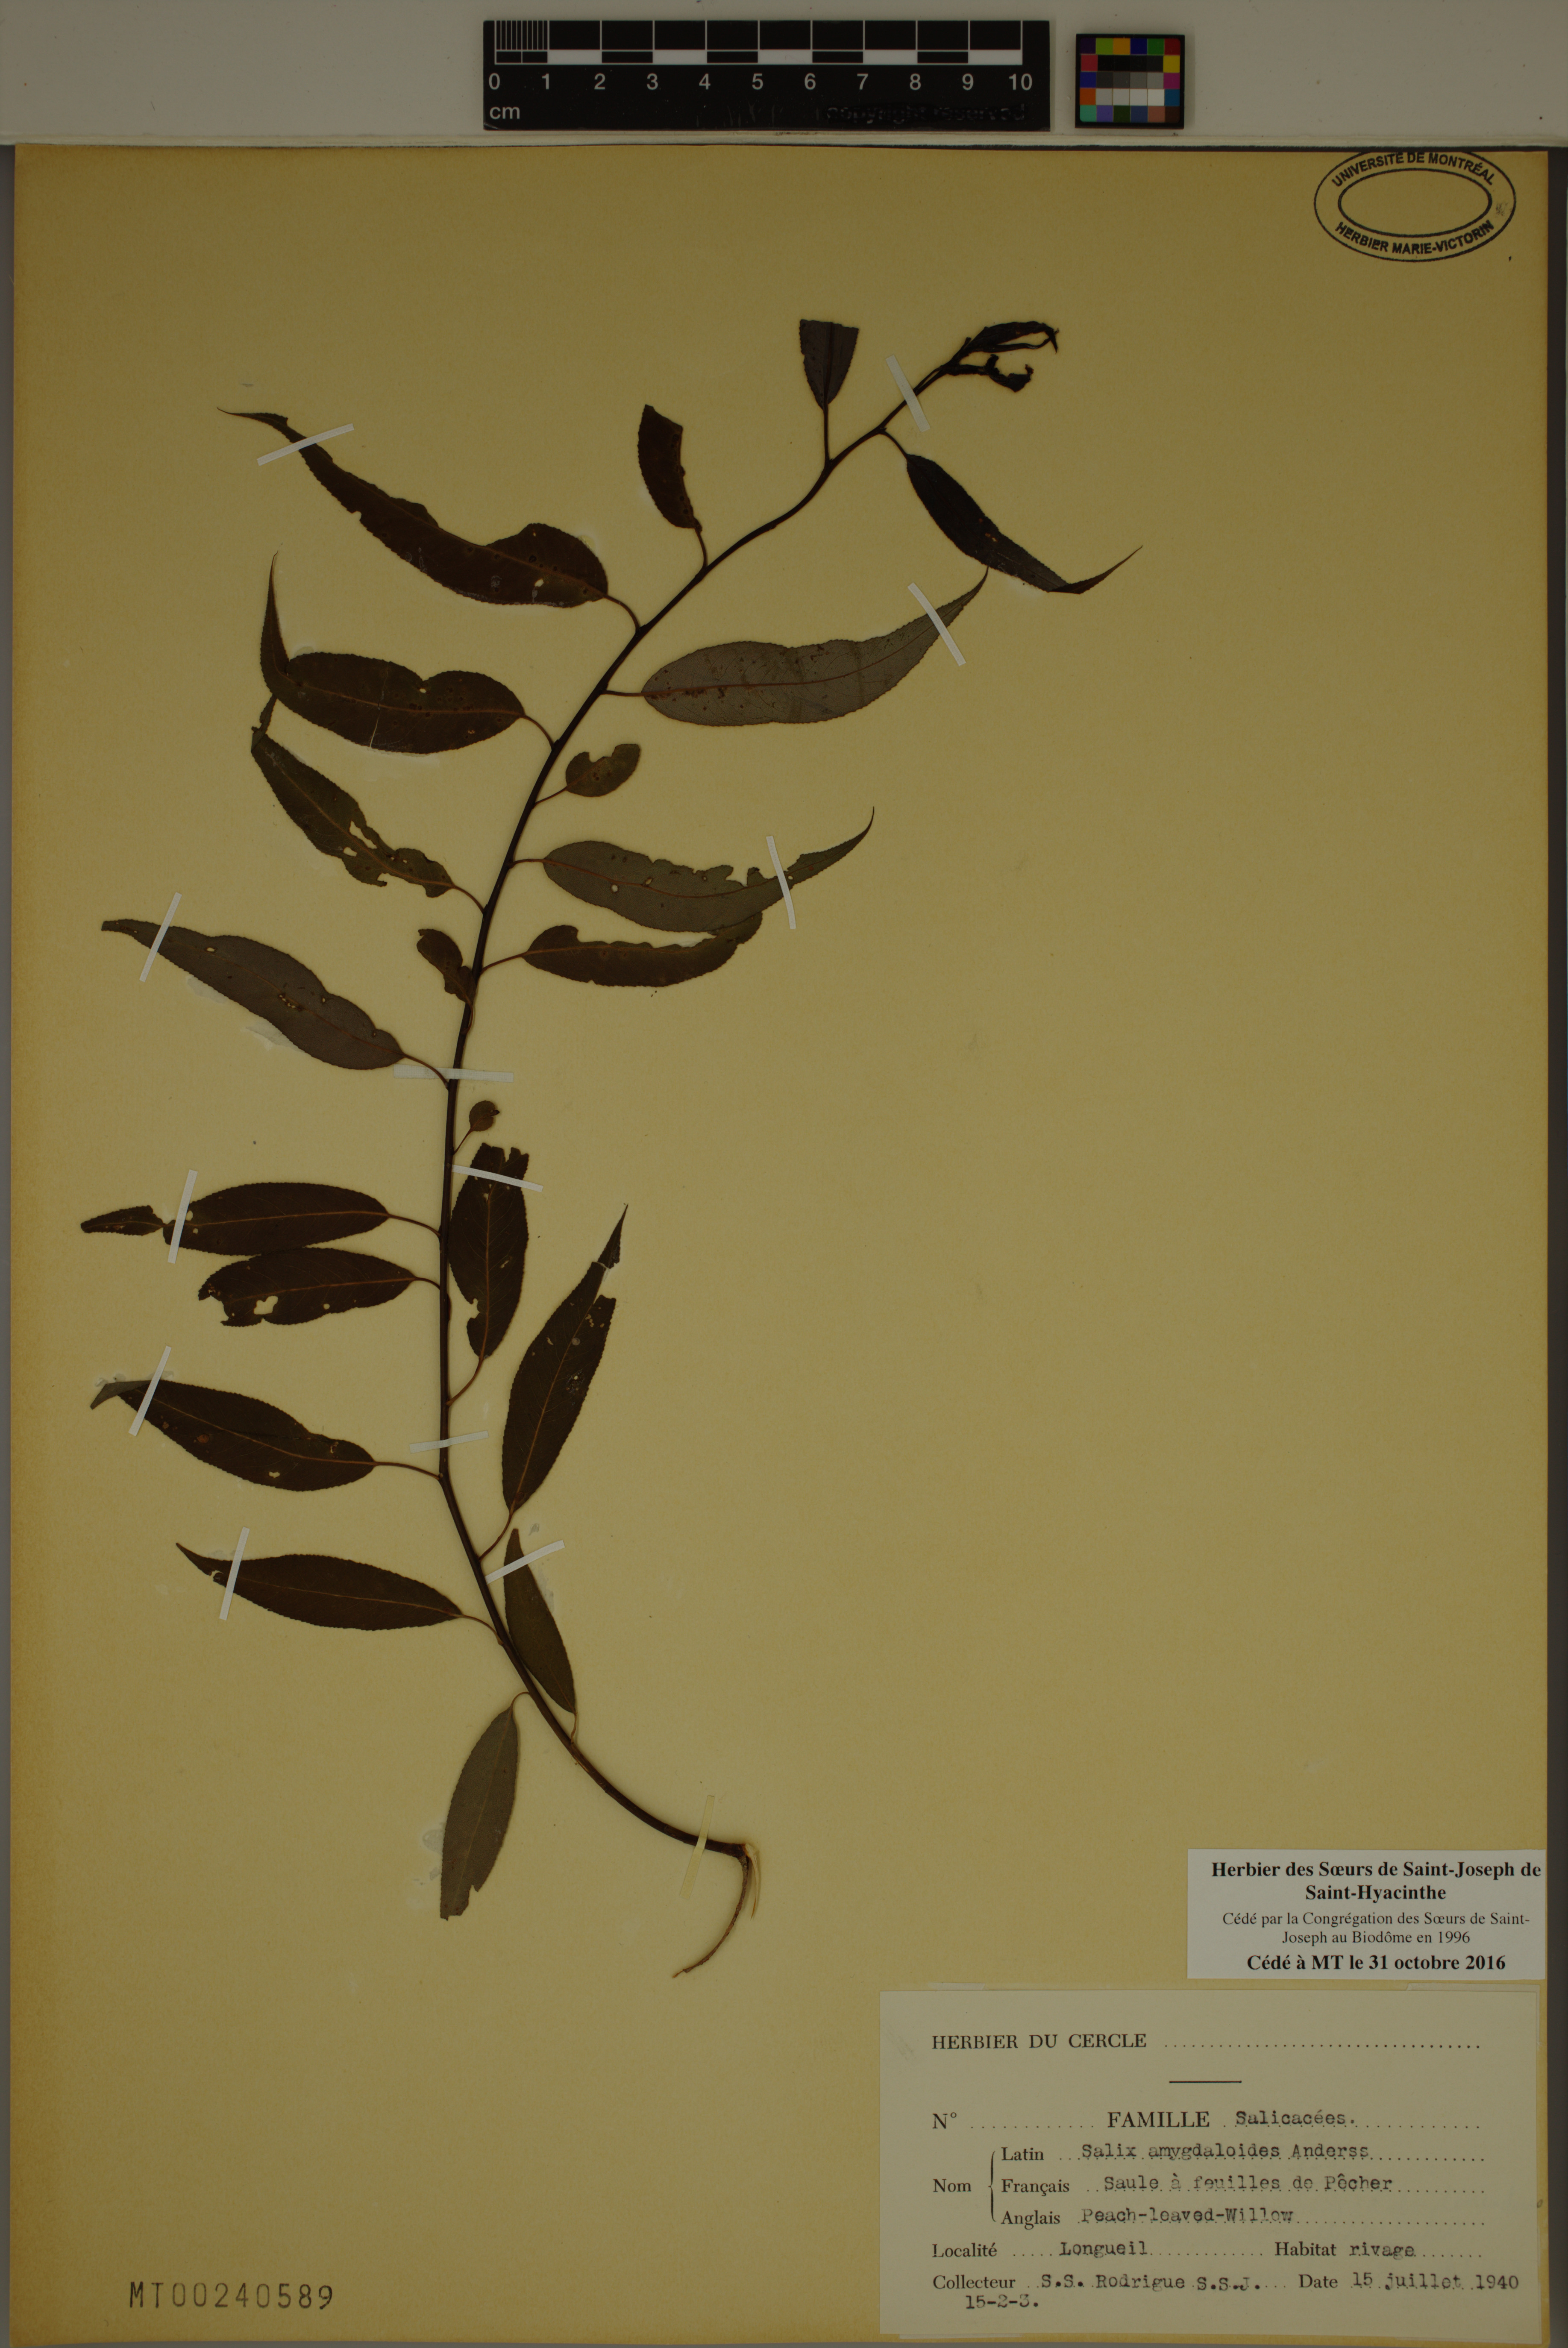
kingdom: Plantae
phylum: Tracheophyta
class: Magnoliopsida
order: Malpighiales
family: Salicaceae
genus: Salix
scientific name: Salix amygdaloides
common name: Peach leaf willow
